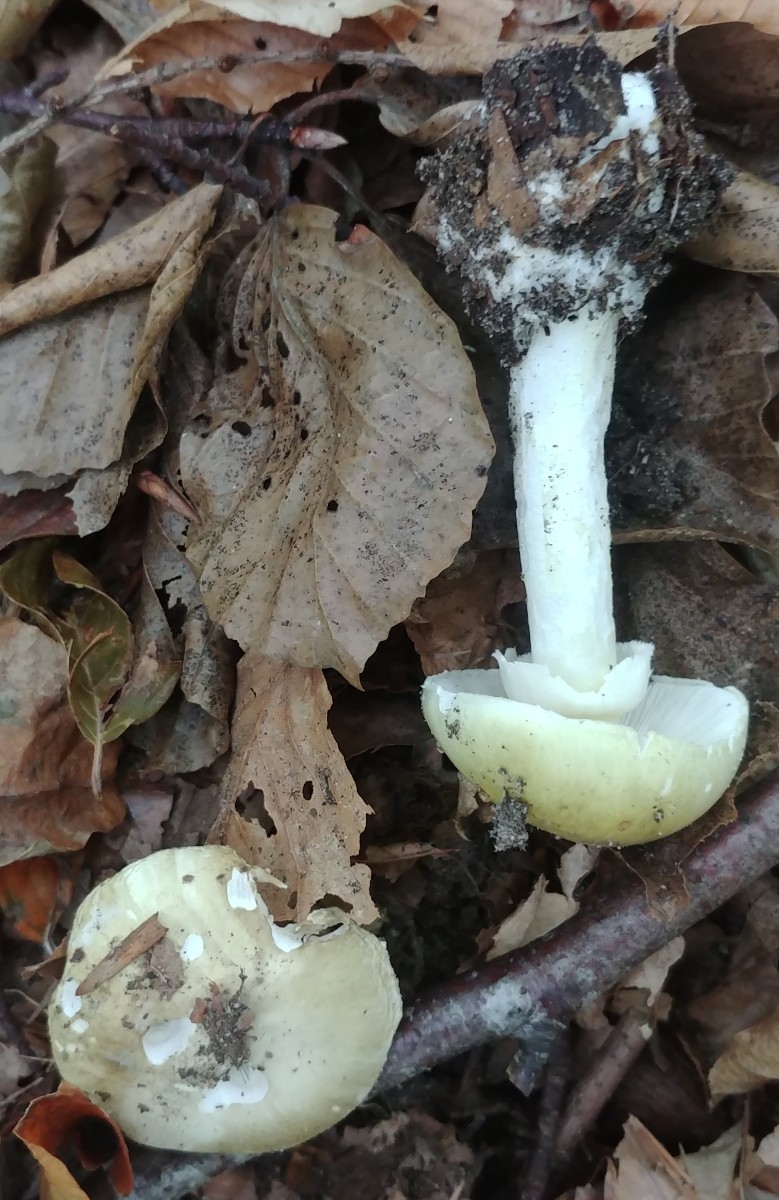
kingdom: Fungi
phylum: Basidiomycota
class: Agaricomycetes
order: Agaricales
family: Amanitaceae
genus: Amanita
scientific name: Amanita phalloides
